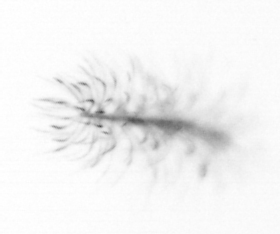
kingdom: Chromista
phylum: Ochrophyta
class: Bacillariophyceae
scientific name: Bacillariophyceae
